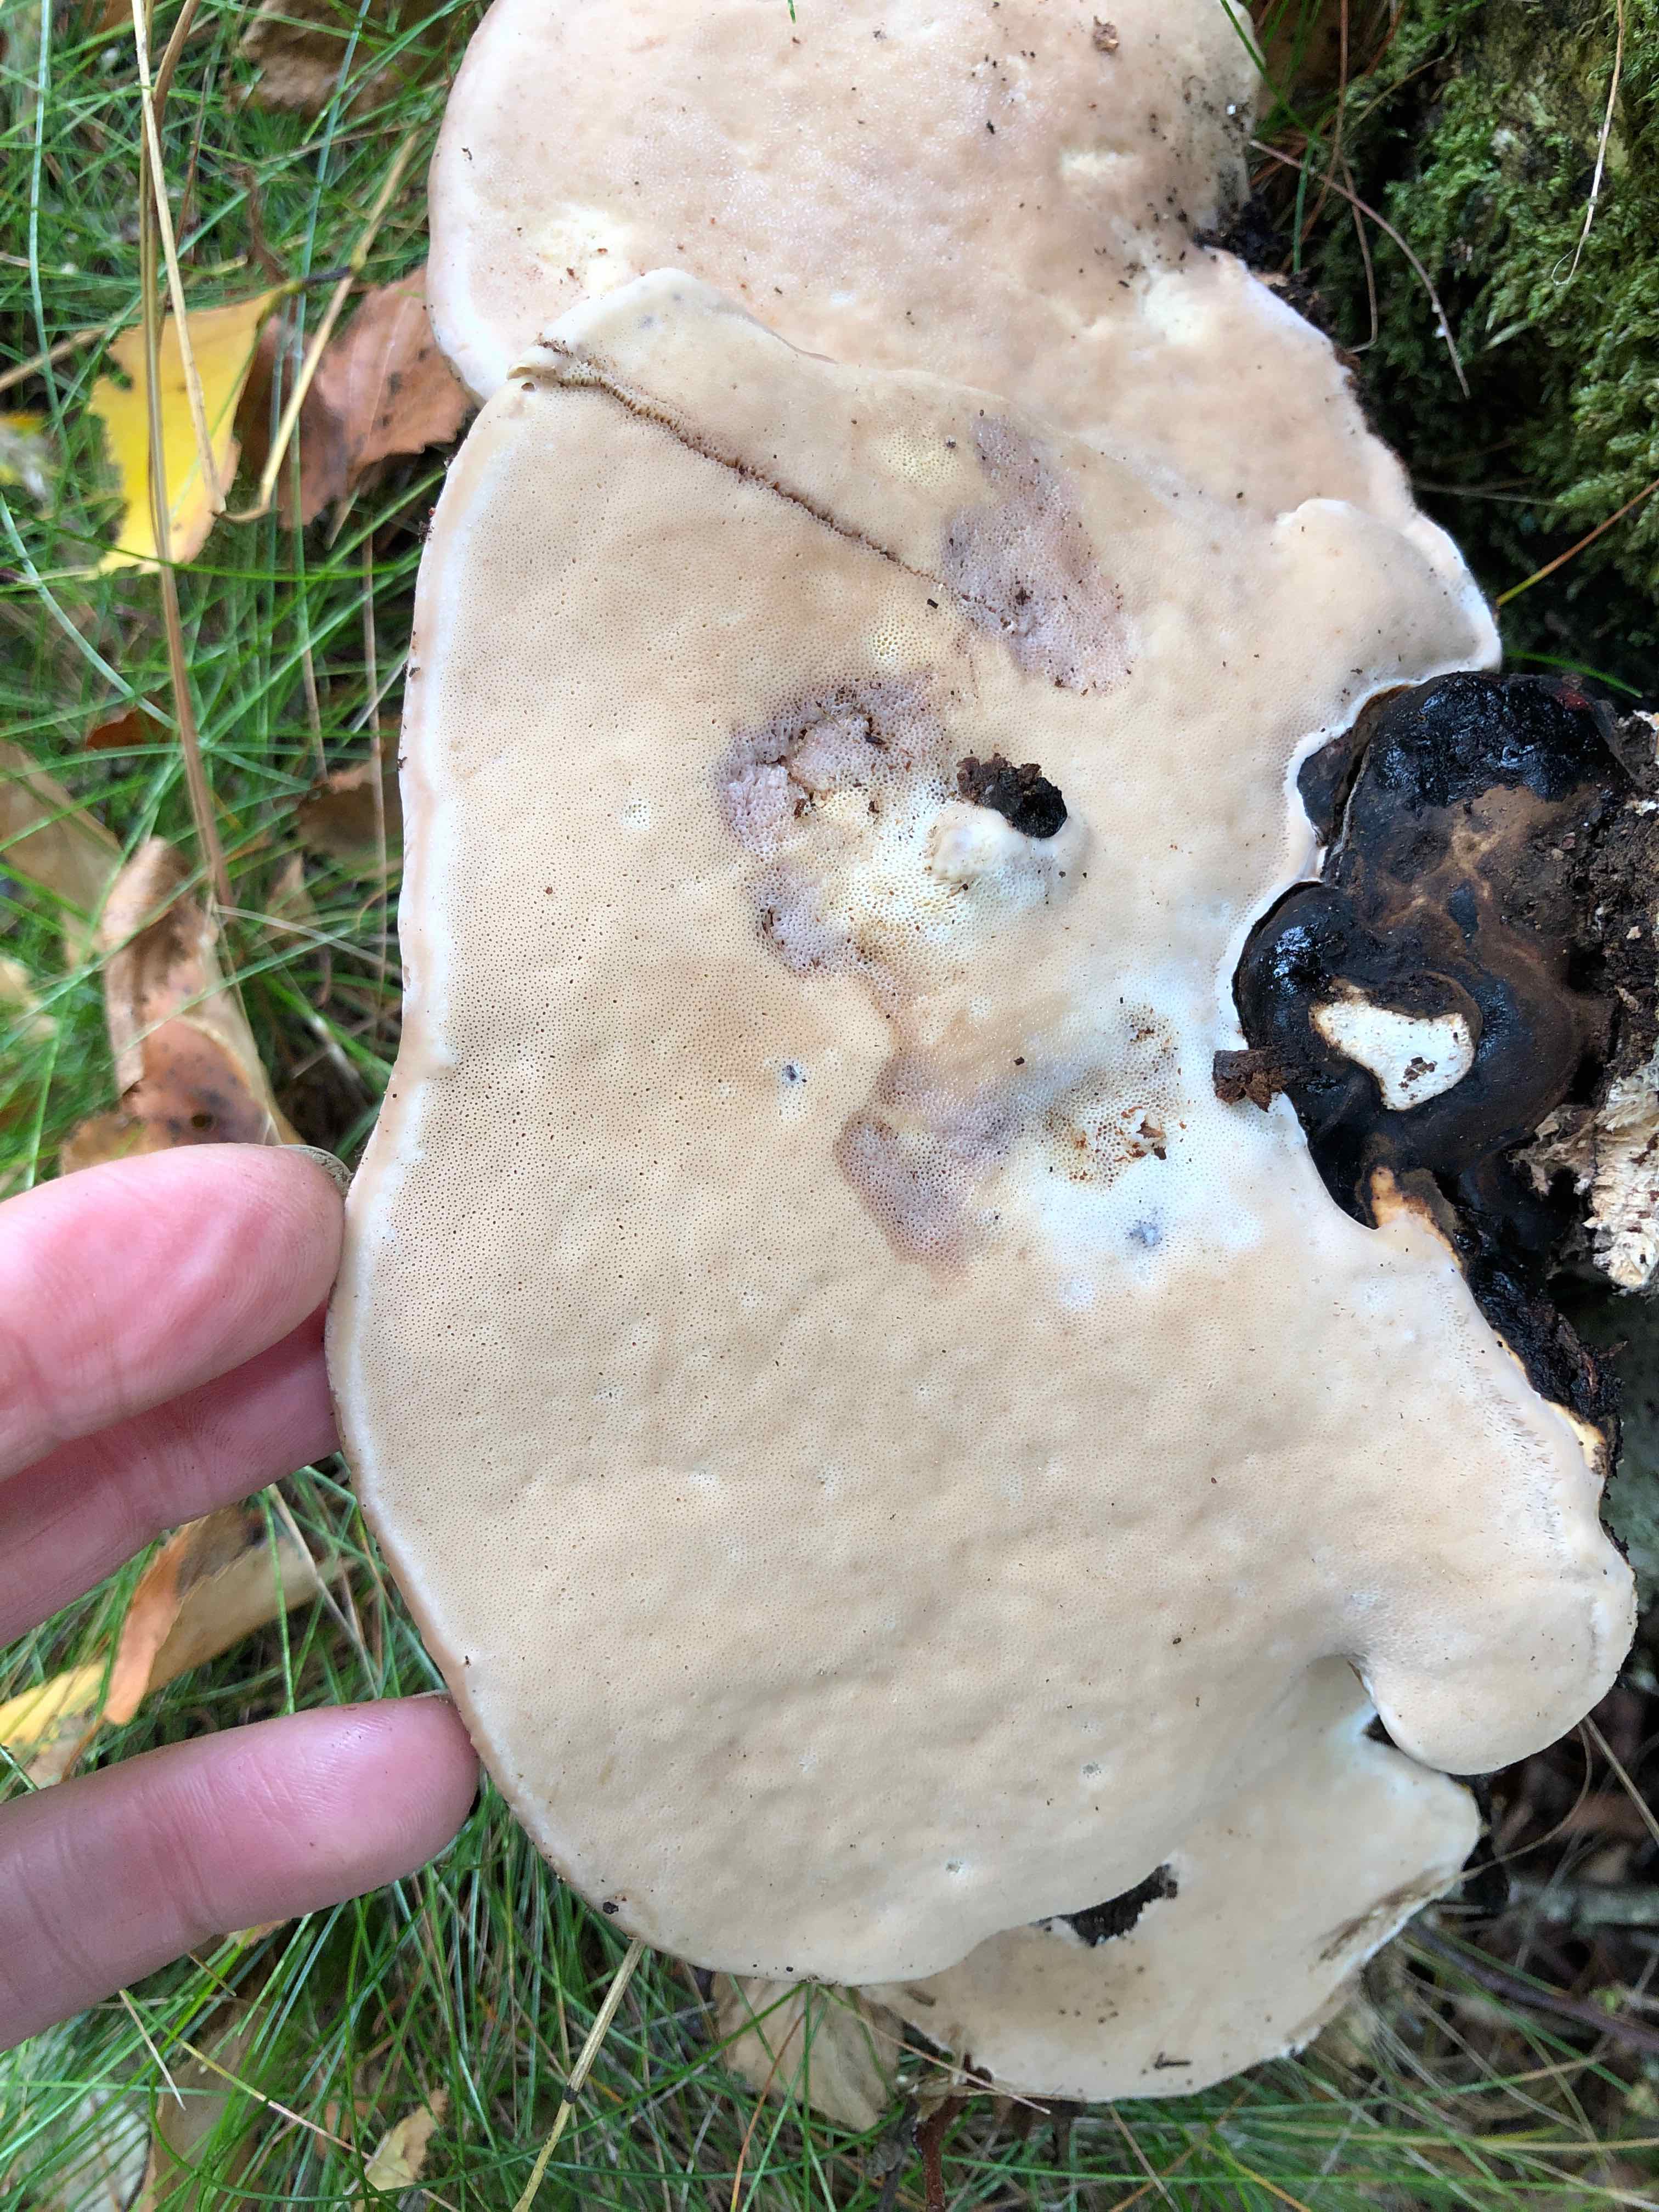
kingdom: Fungi
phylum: Basidiomycota
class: Agaricomycetes
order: Polyporales
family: Fomitopsidaceae
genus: Fomitopsis
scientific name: Fomitopsis pinicola
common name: randbæltet hovporesvamp
